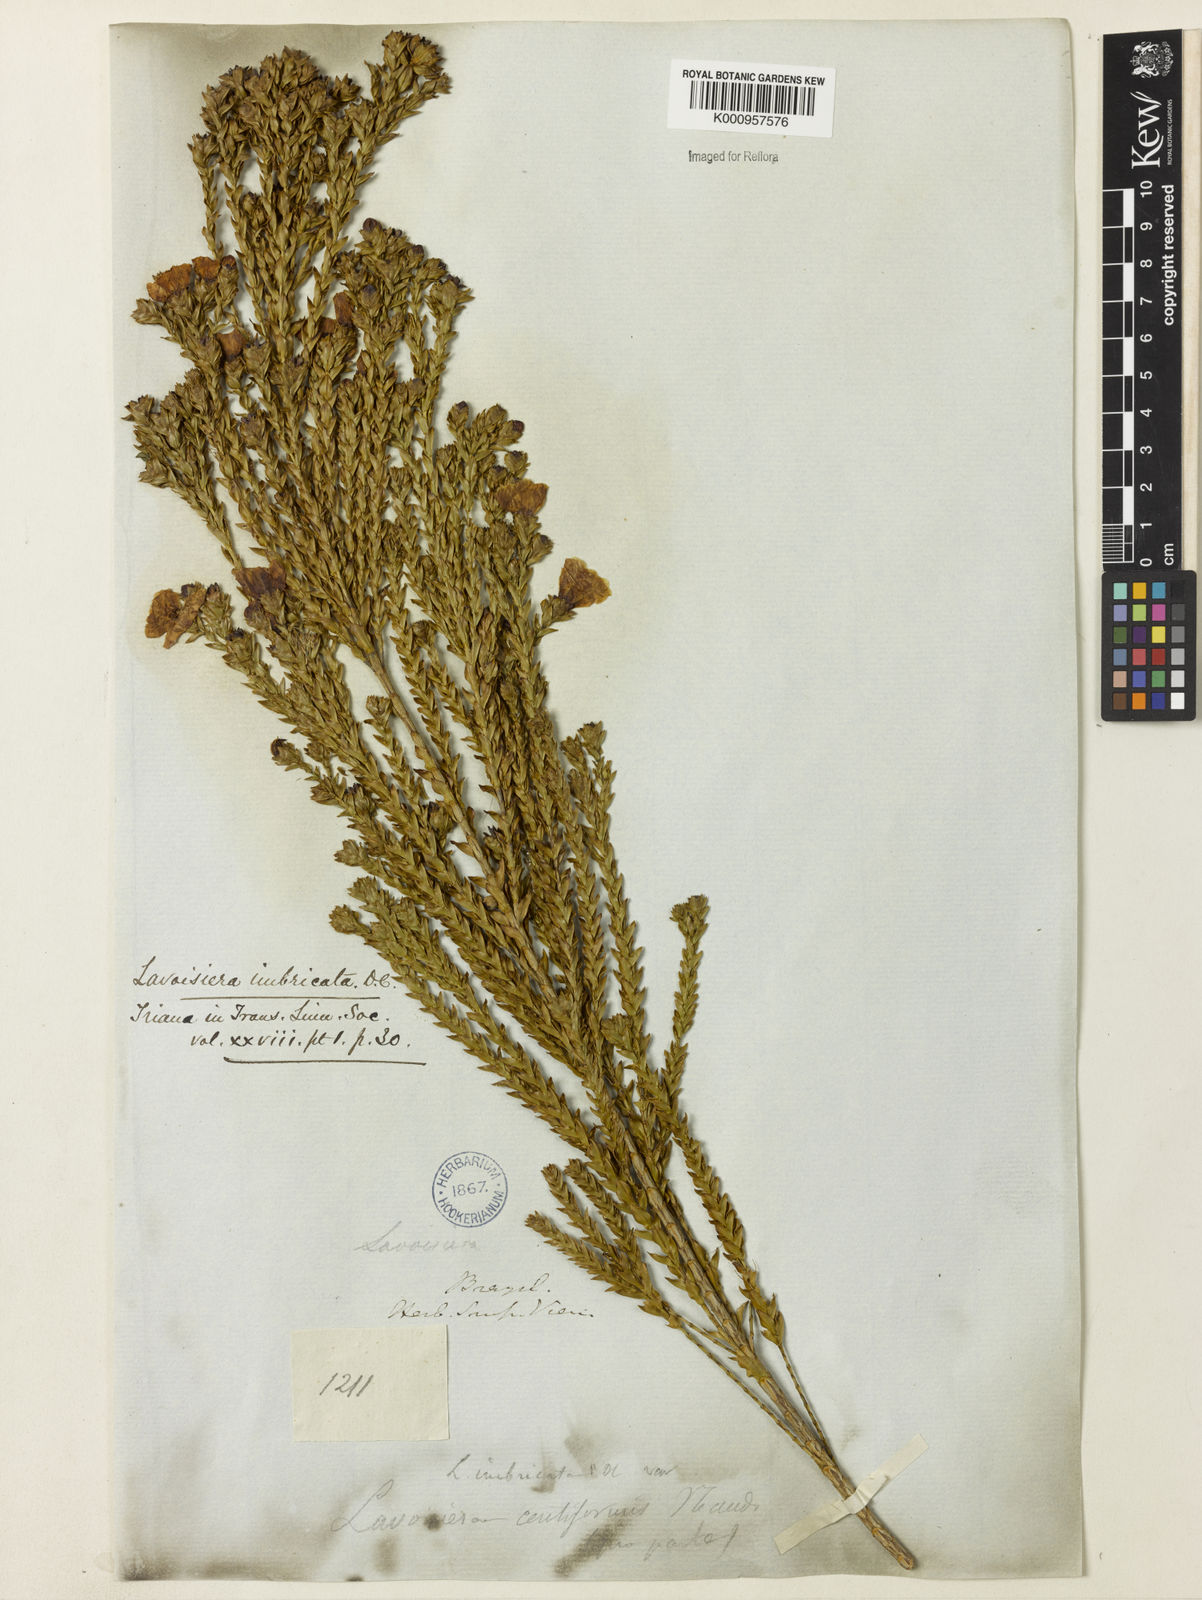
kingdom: Plantae
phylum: Tracheophyta
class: Magnoliopsida
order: Myrtales
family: Melastomataceae
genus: Microlicia
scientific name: Microlicia cataphracta
